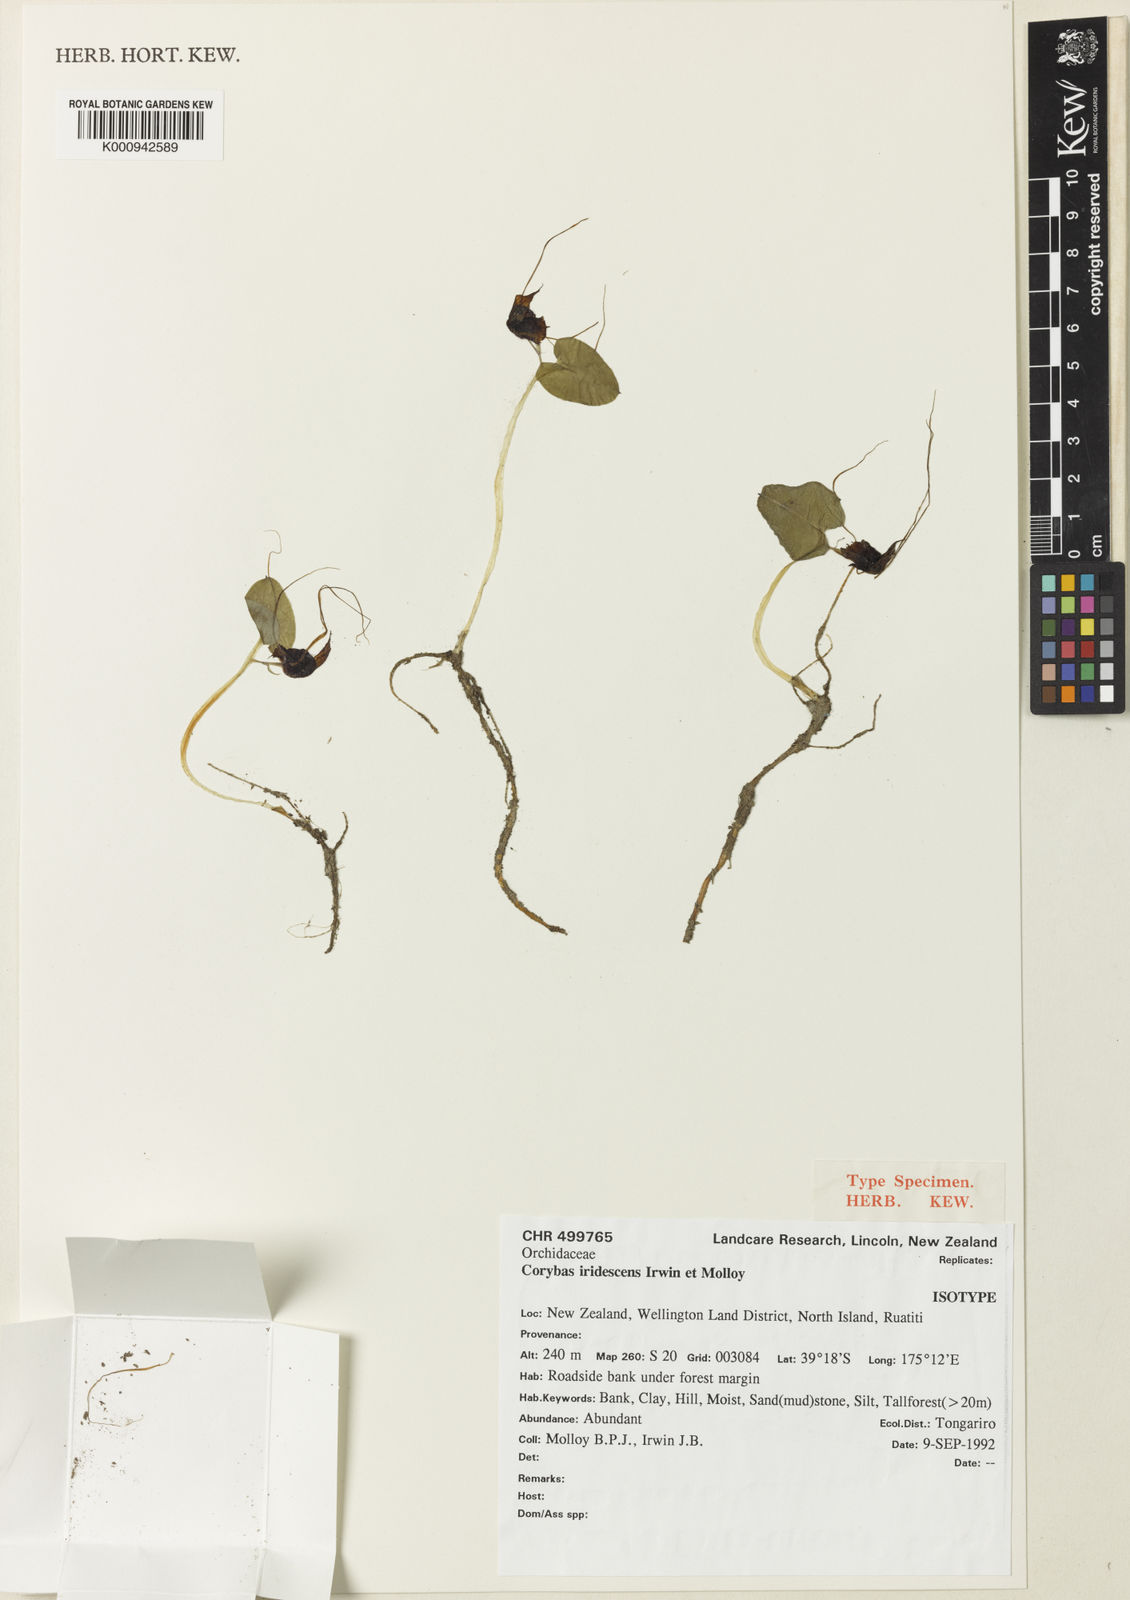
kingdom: Plantae
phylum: Tracheophyta
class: Liliopsida
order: Asparagales
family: Orchidaceae
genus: Corybas
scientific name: Corybas iridescens
